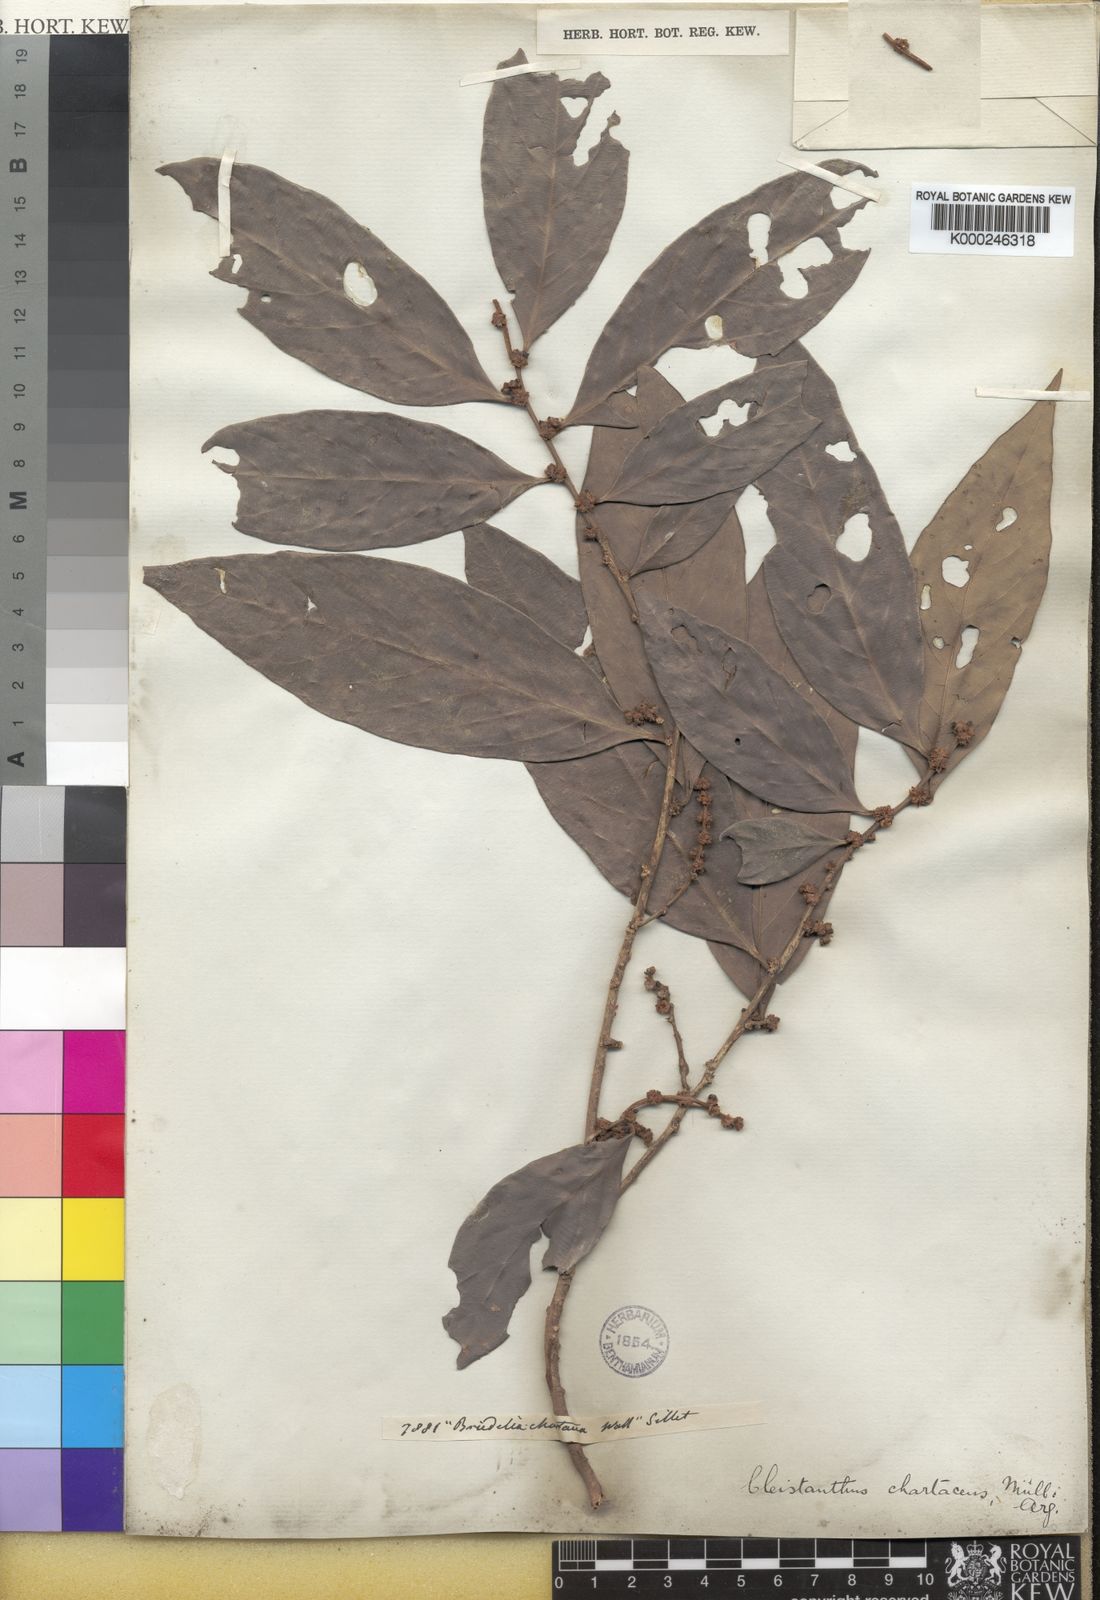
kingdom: Plantae
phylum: Tracheophyta
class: Magnoliopsida
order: Malpighiales
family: Phyllanthaceae
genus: Cleistanthus
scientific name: Cleistanthus
